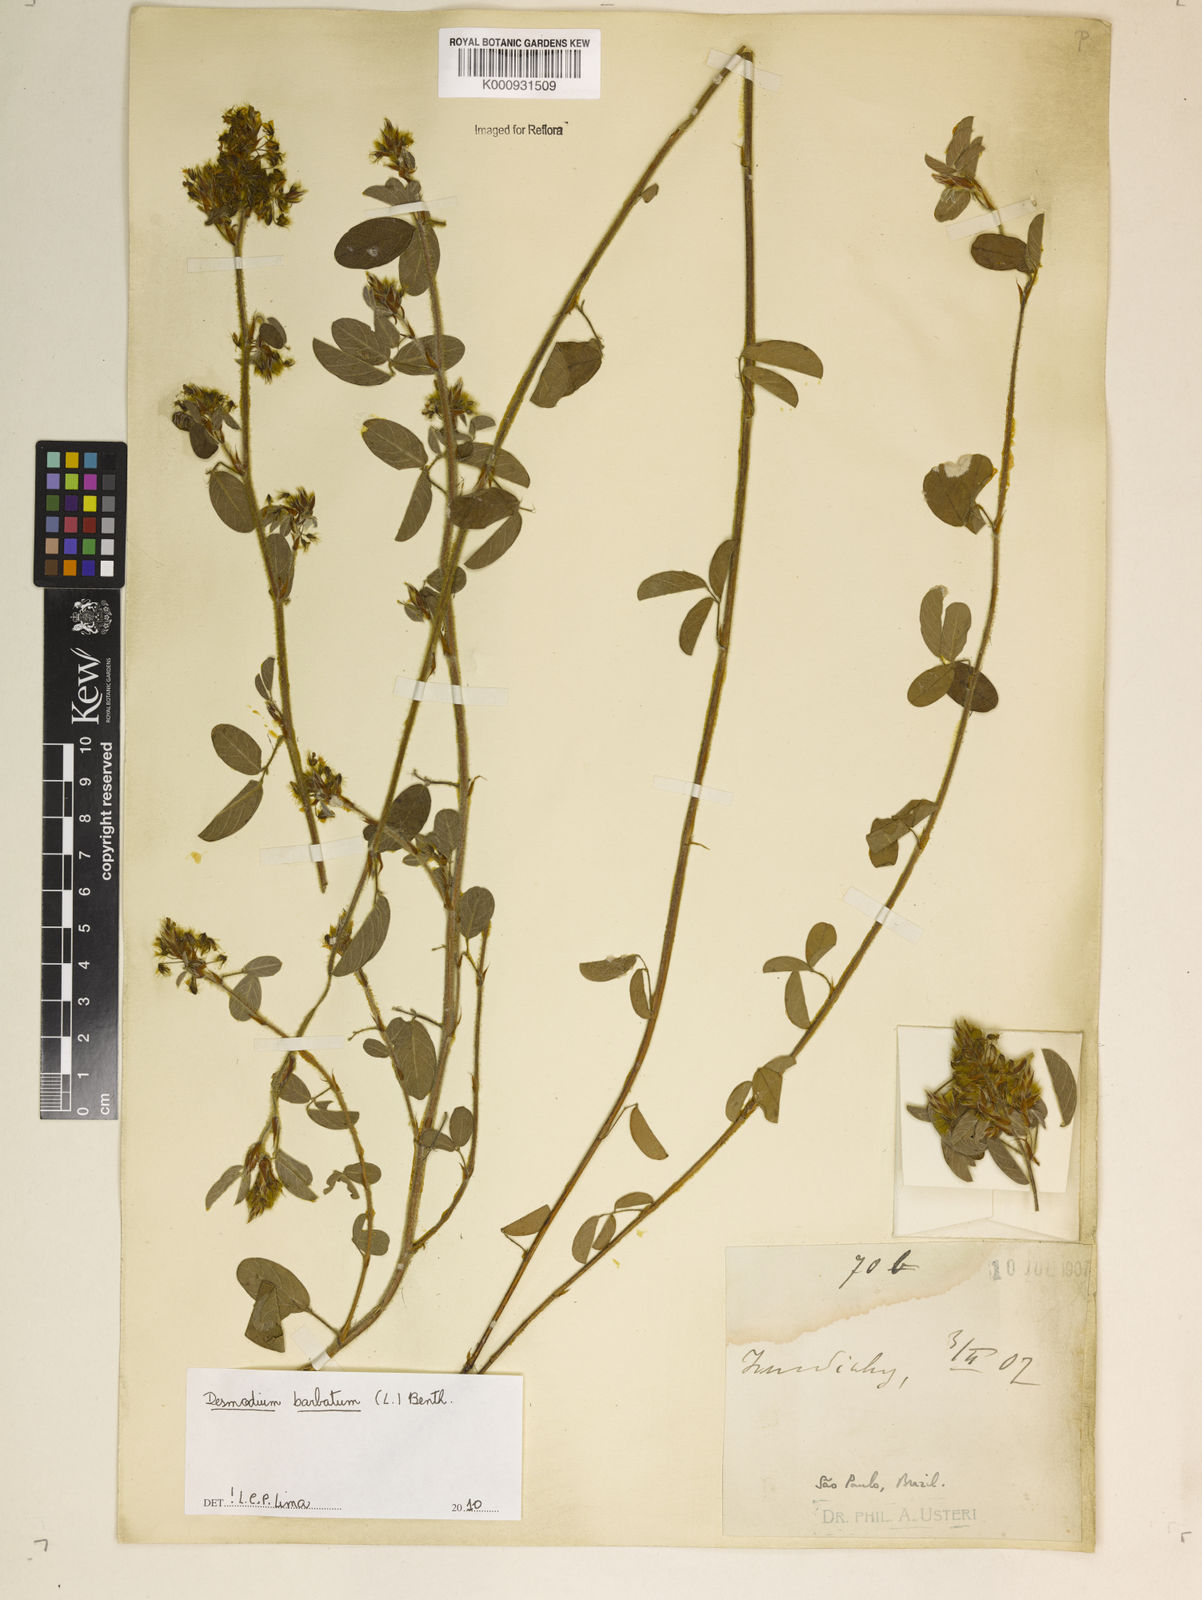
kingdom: Plantae
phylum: Tracheophyta
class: Magnoliopsida
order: Fabales
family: Fabaceae
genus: Grona
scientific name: Grona barbata
